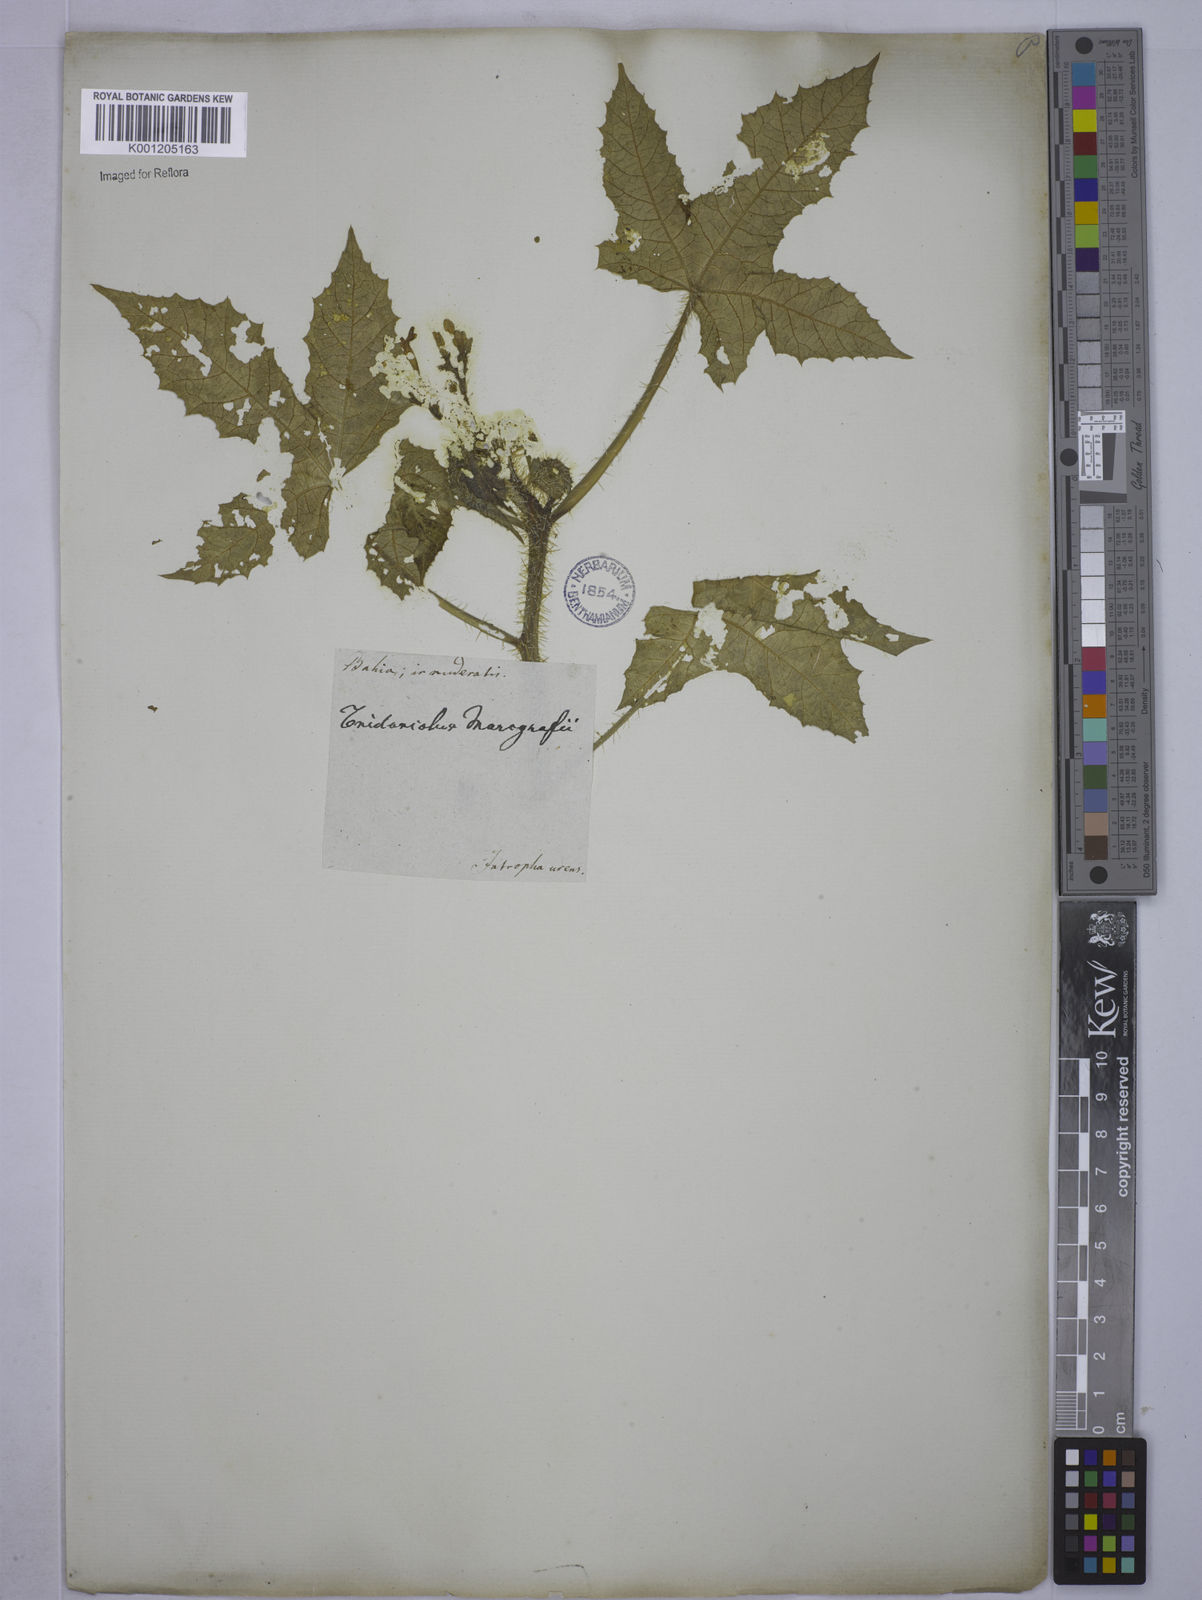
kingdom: Plantae
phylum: Tracheophyta
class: Magnoliopsida
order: Malpighiales
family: Euphorbiaceae
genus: Cnidoscolus
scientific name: Cnidoscolus urens
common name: Bull-nettle
